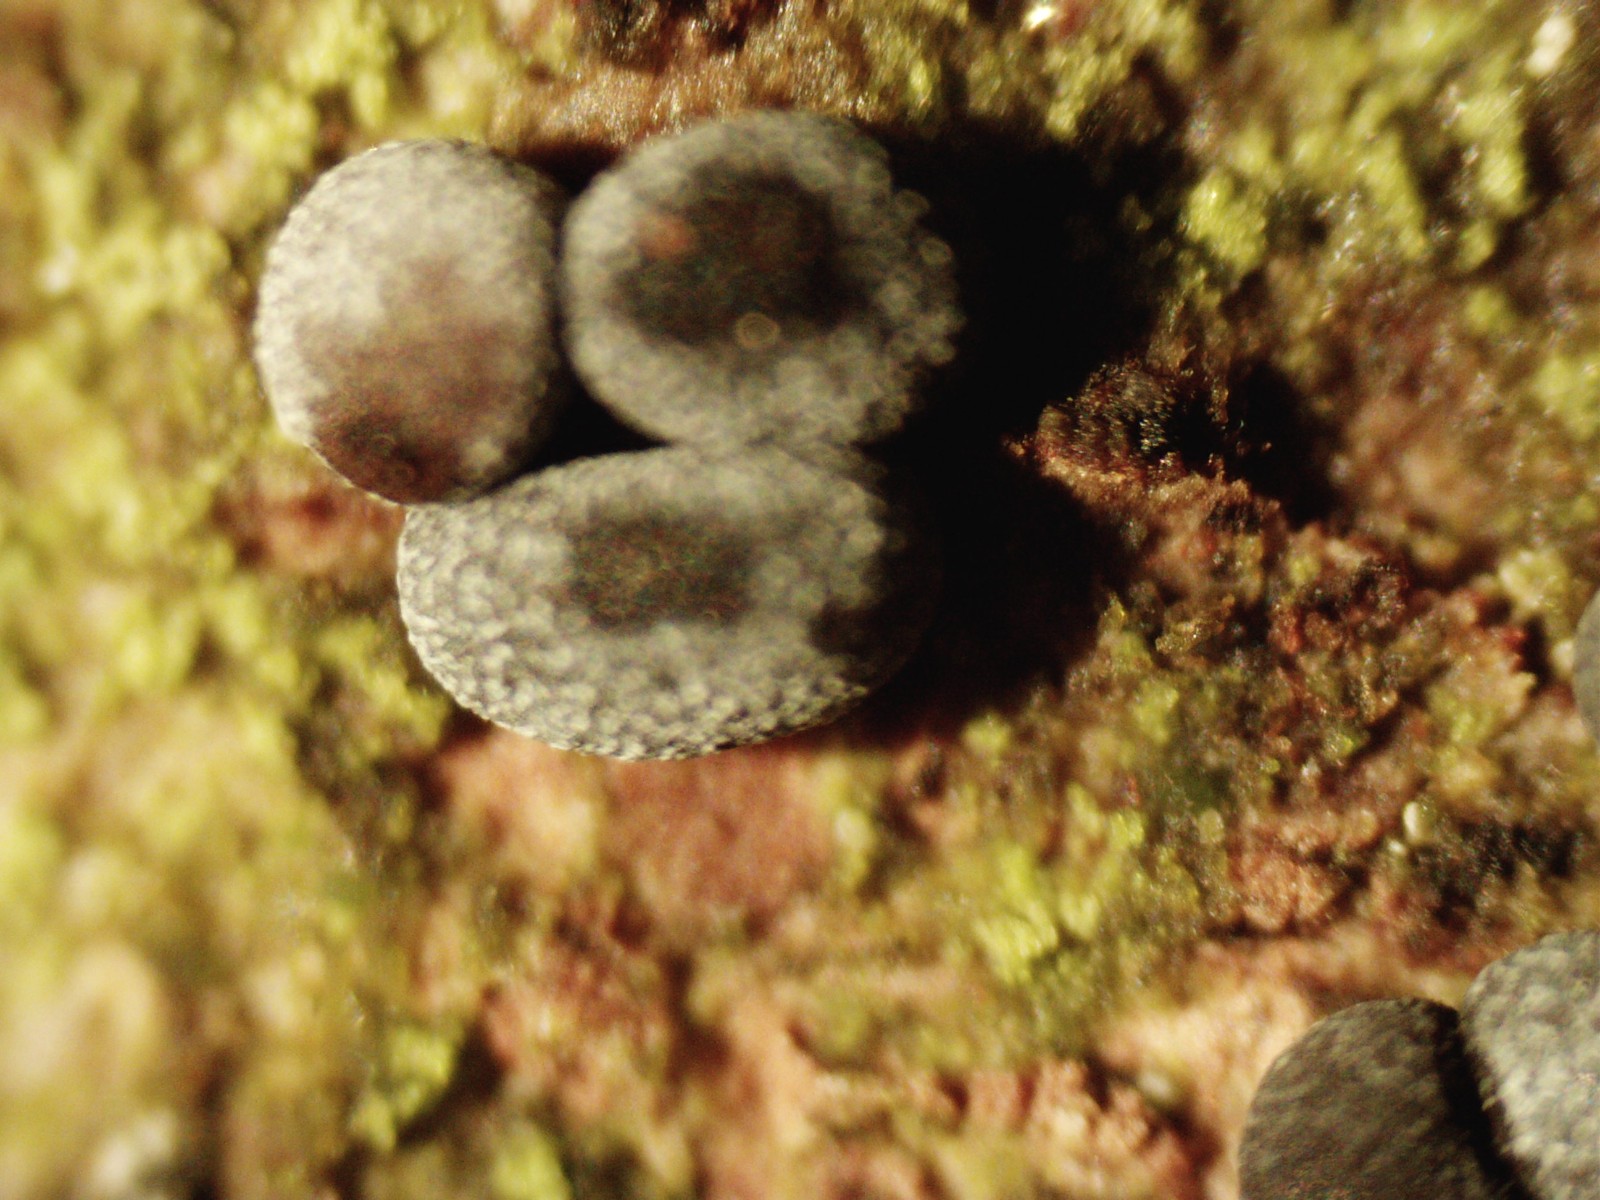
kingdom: Protozoa
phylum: Mycetozoa
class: Myxomycetes
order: Physarales
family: Physaraceae
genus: Badhamia
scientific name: Badhamia
